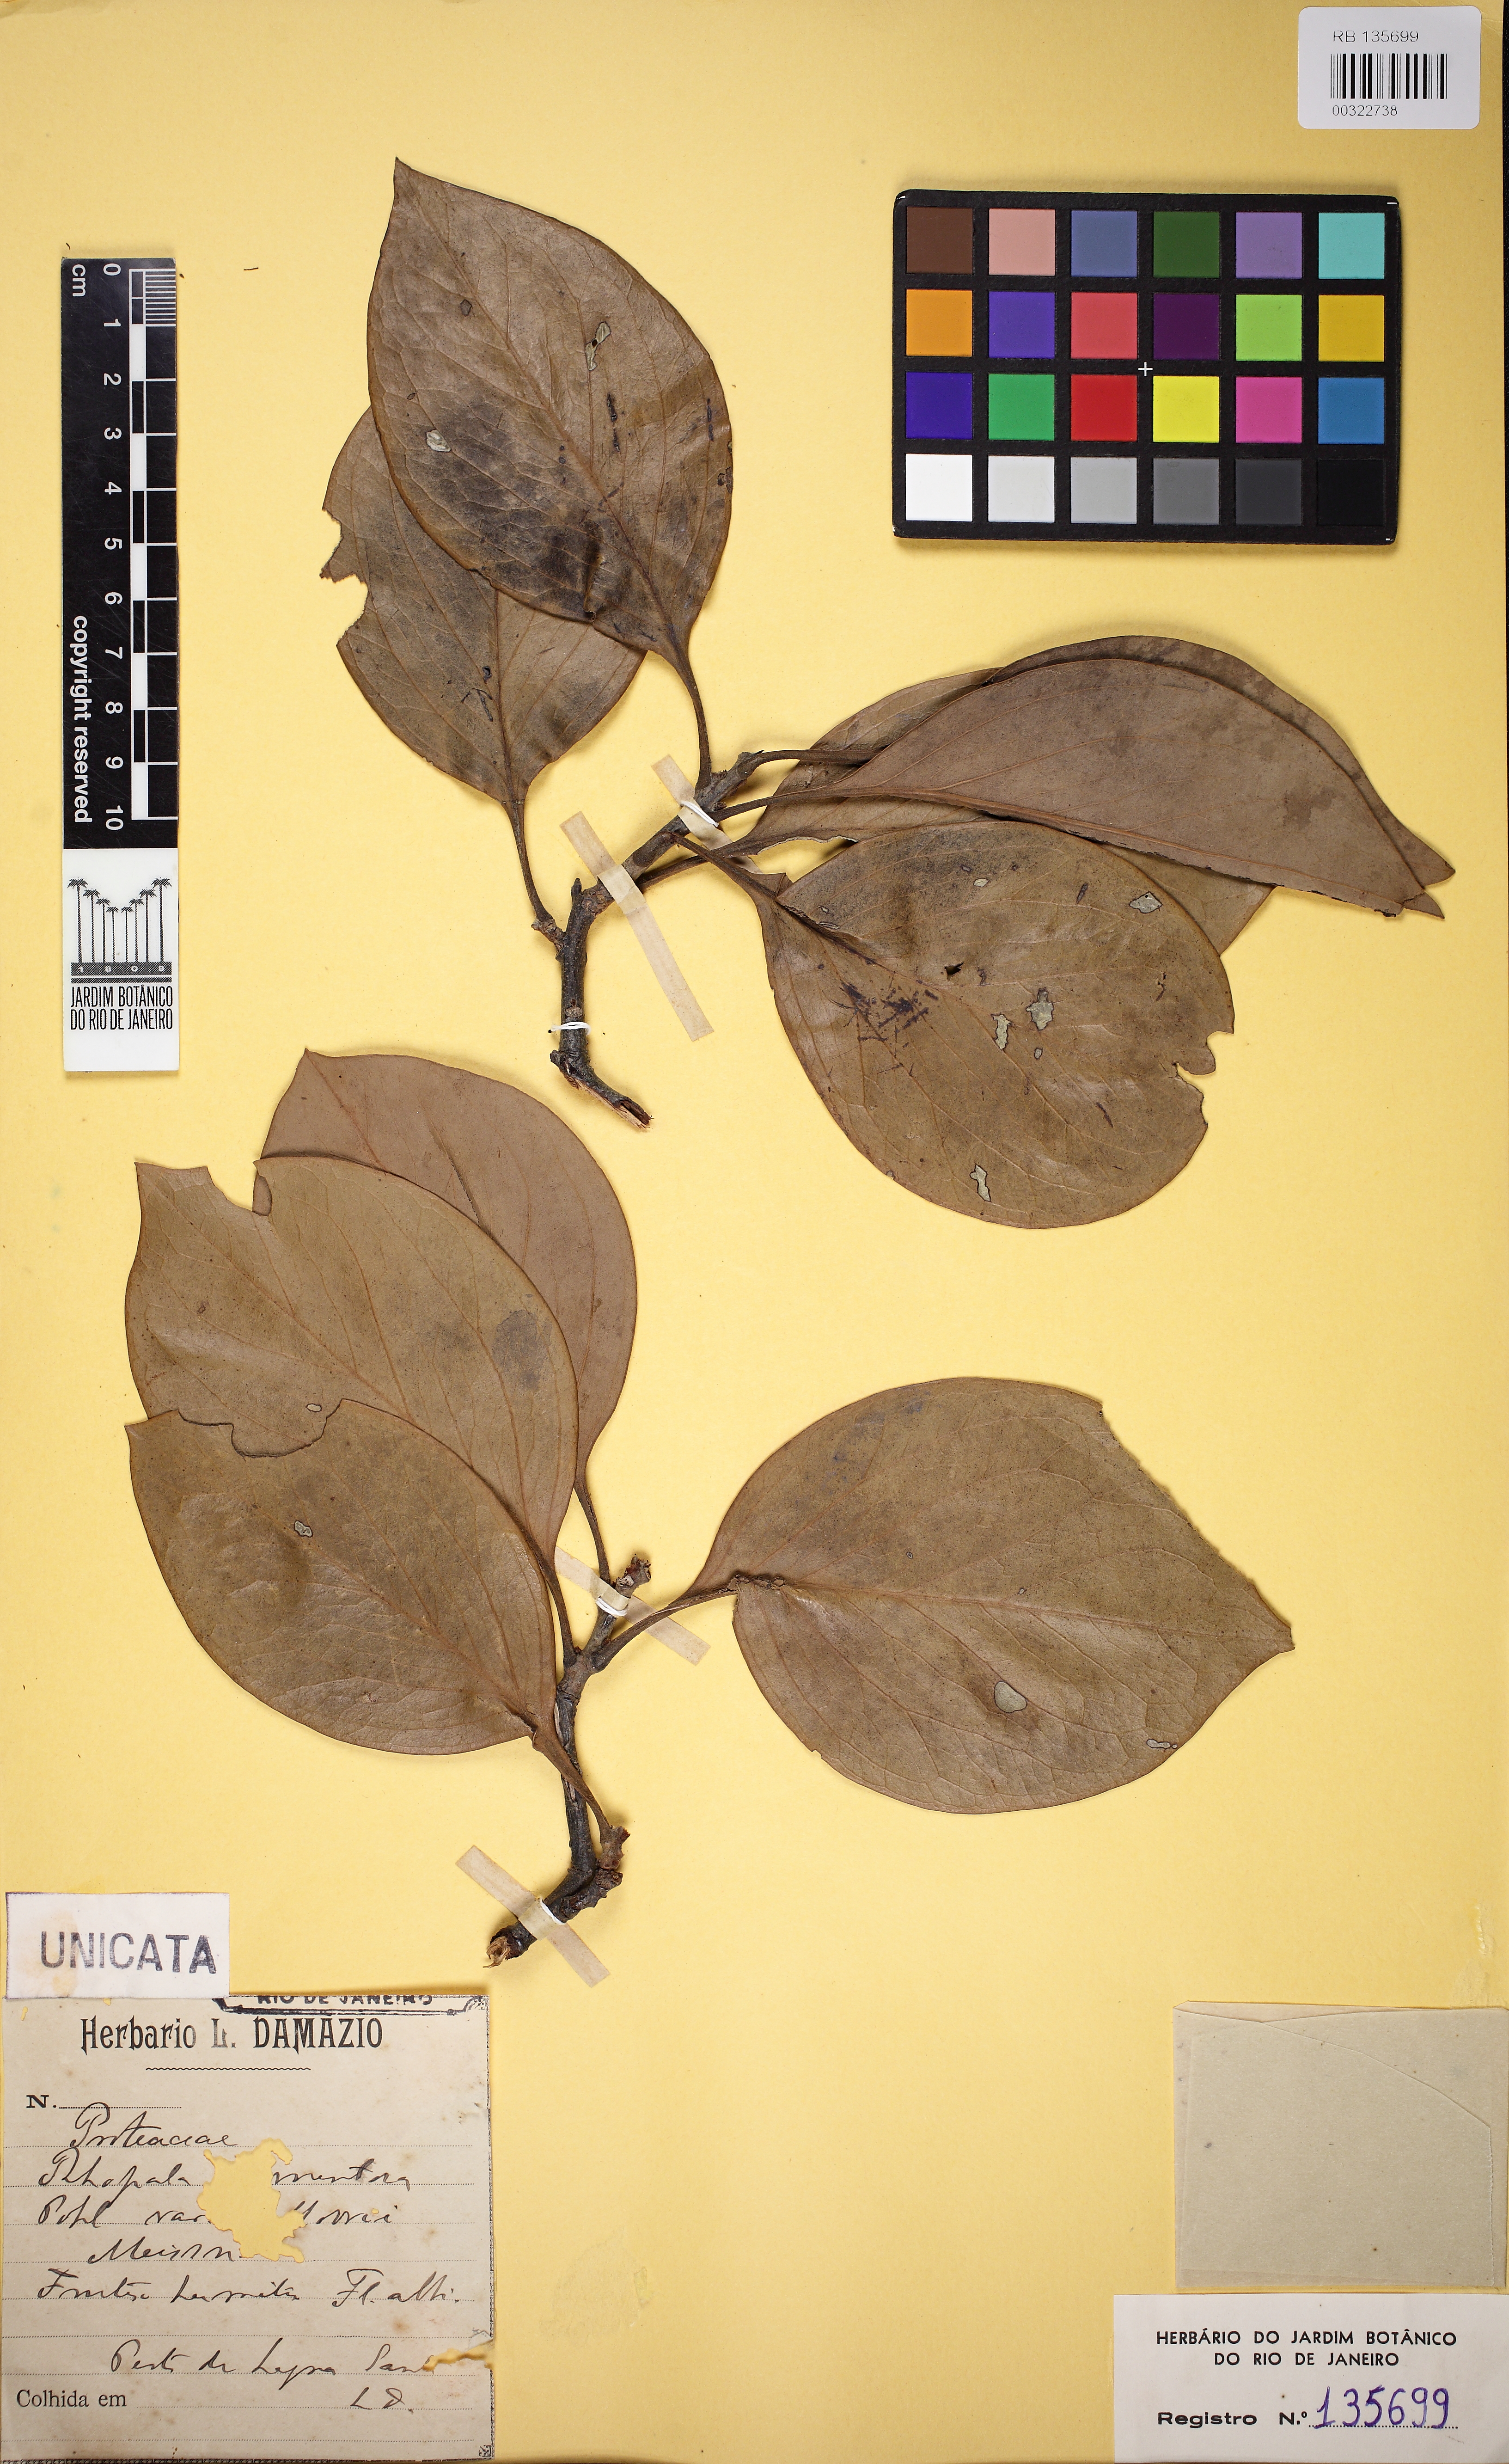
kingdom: Plantae
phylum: Tracheophyta
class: Magnoliopsida
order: Proteales
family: Proteaceae
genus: Roupala
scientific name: Roupala
